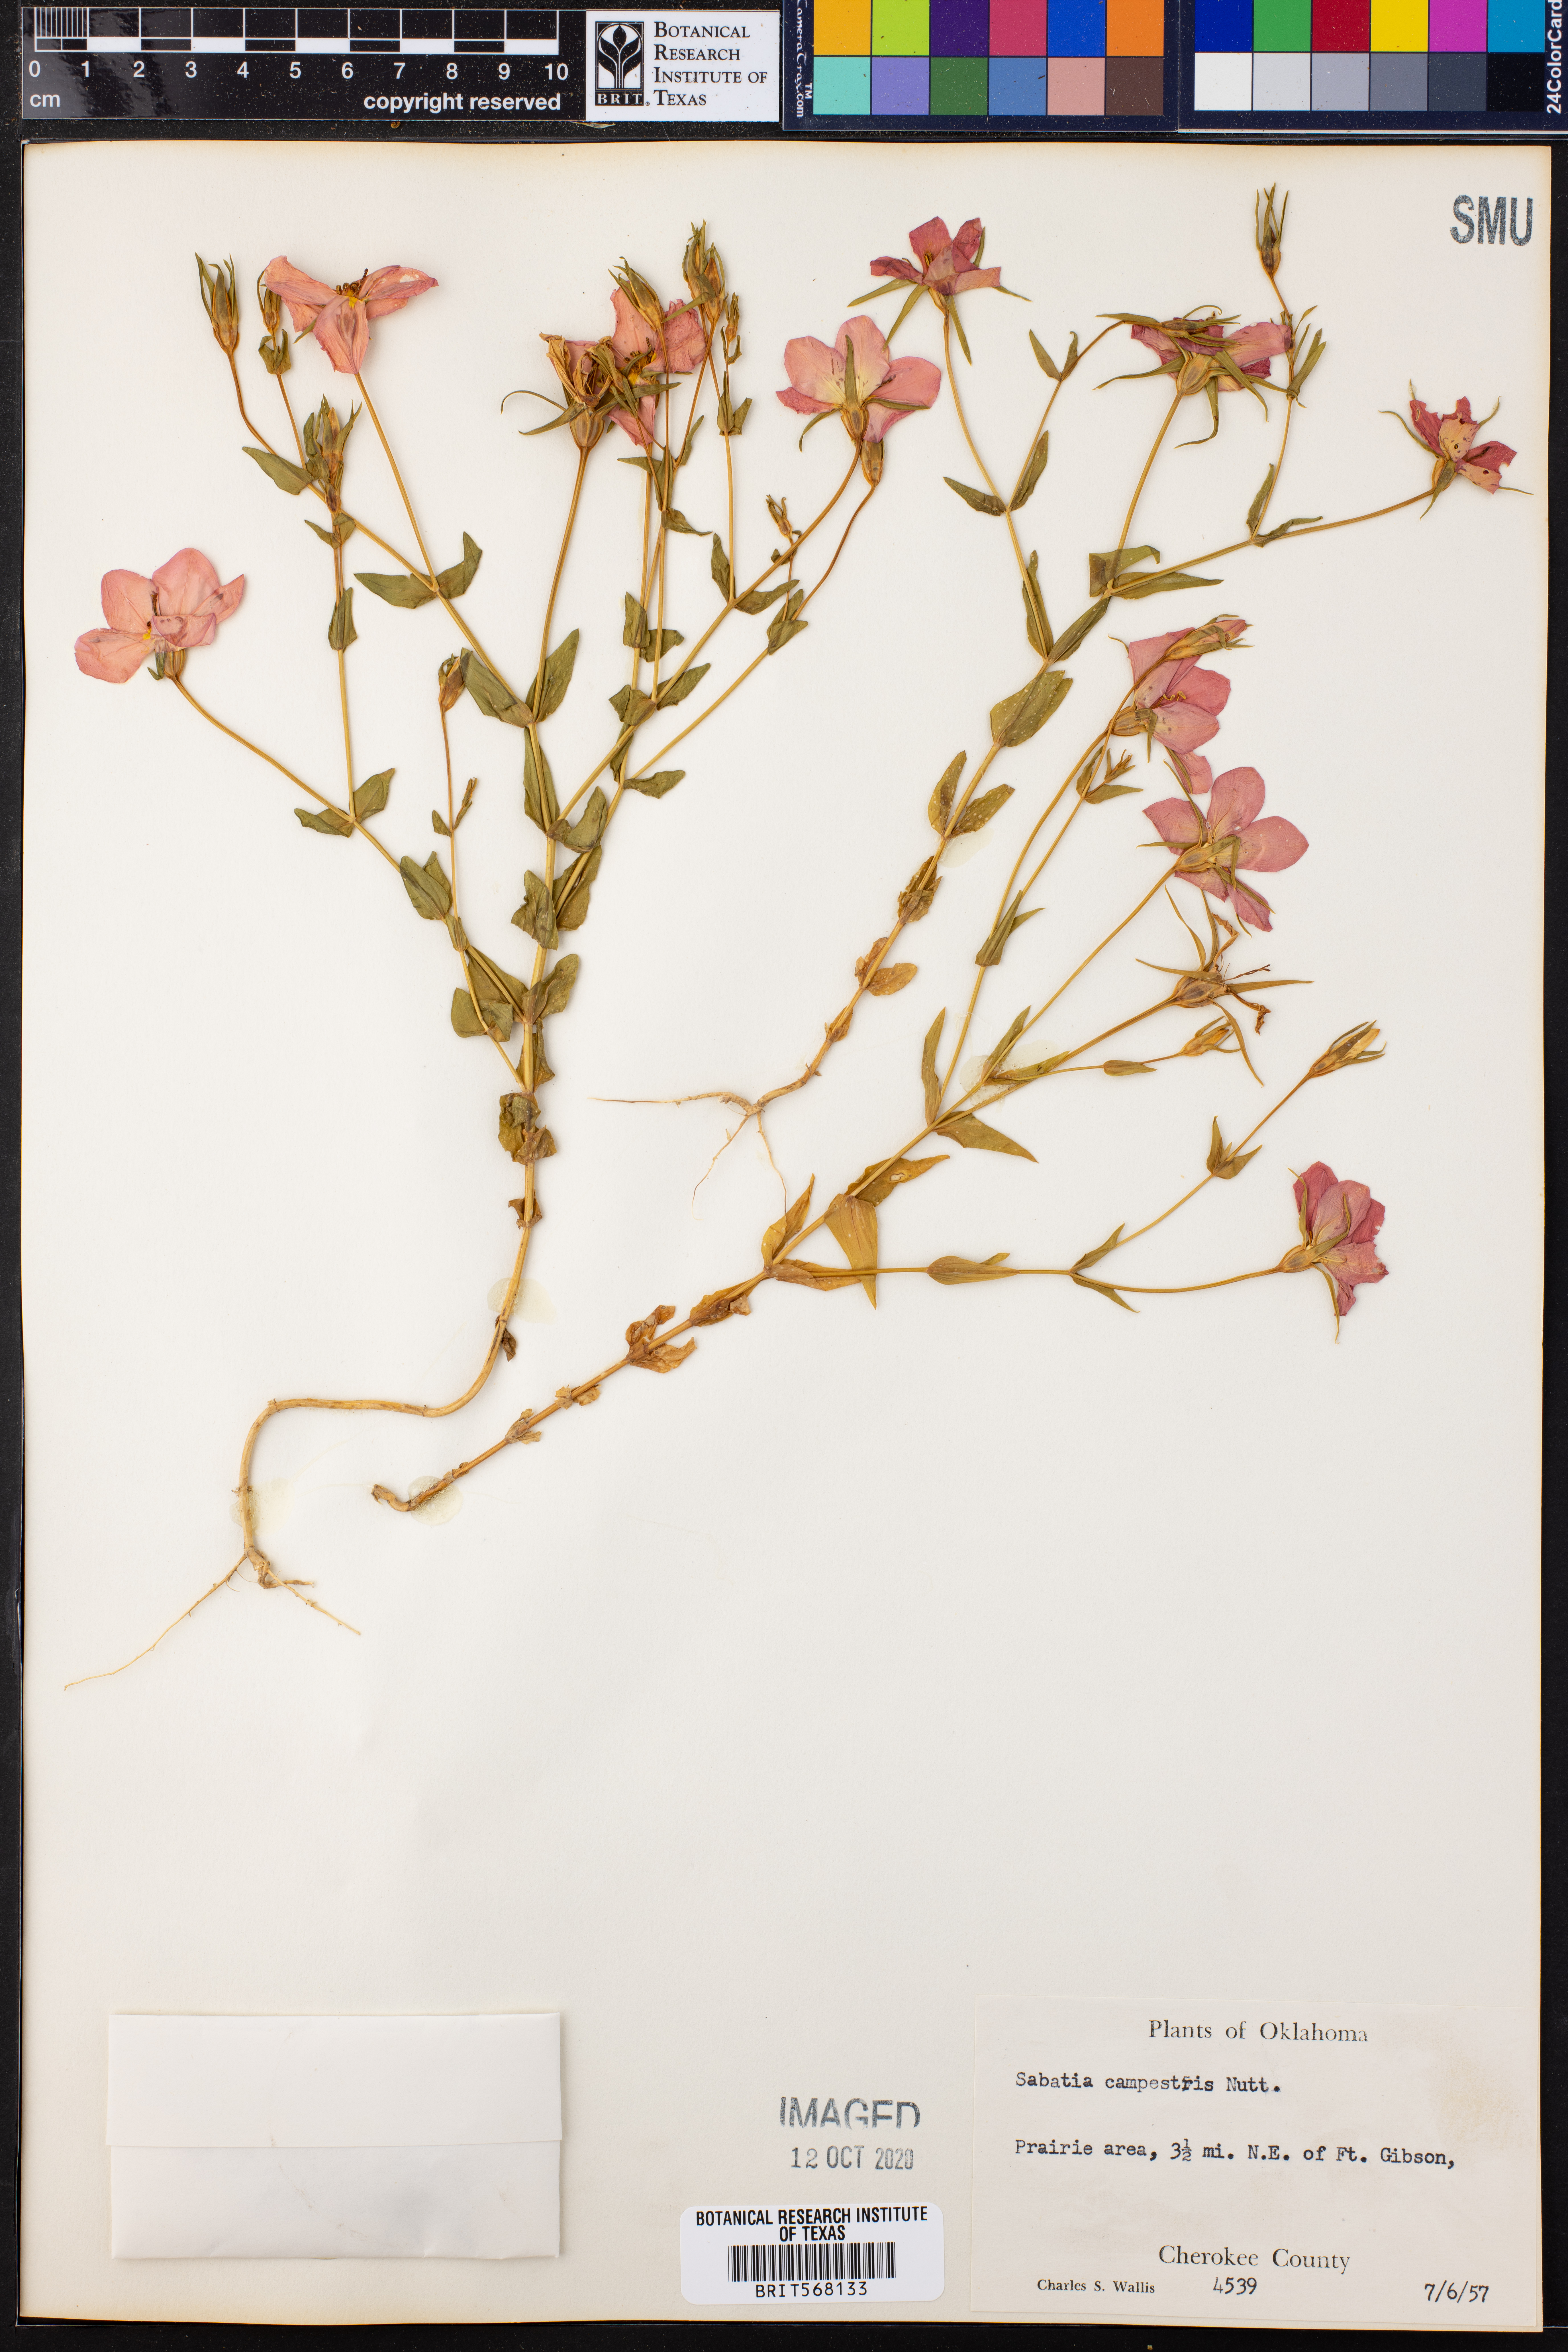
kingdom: Plantae
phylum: Tracheophyta
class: Magnoliopsida
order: Gentianales
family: Gentianaceae
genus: Sabatia
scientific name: Sabatia campestris
